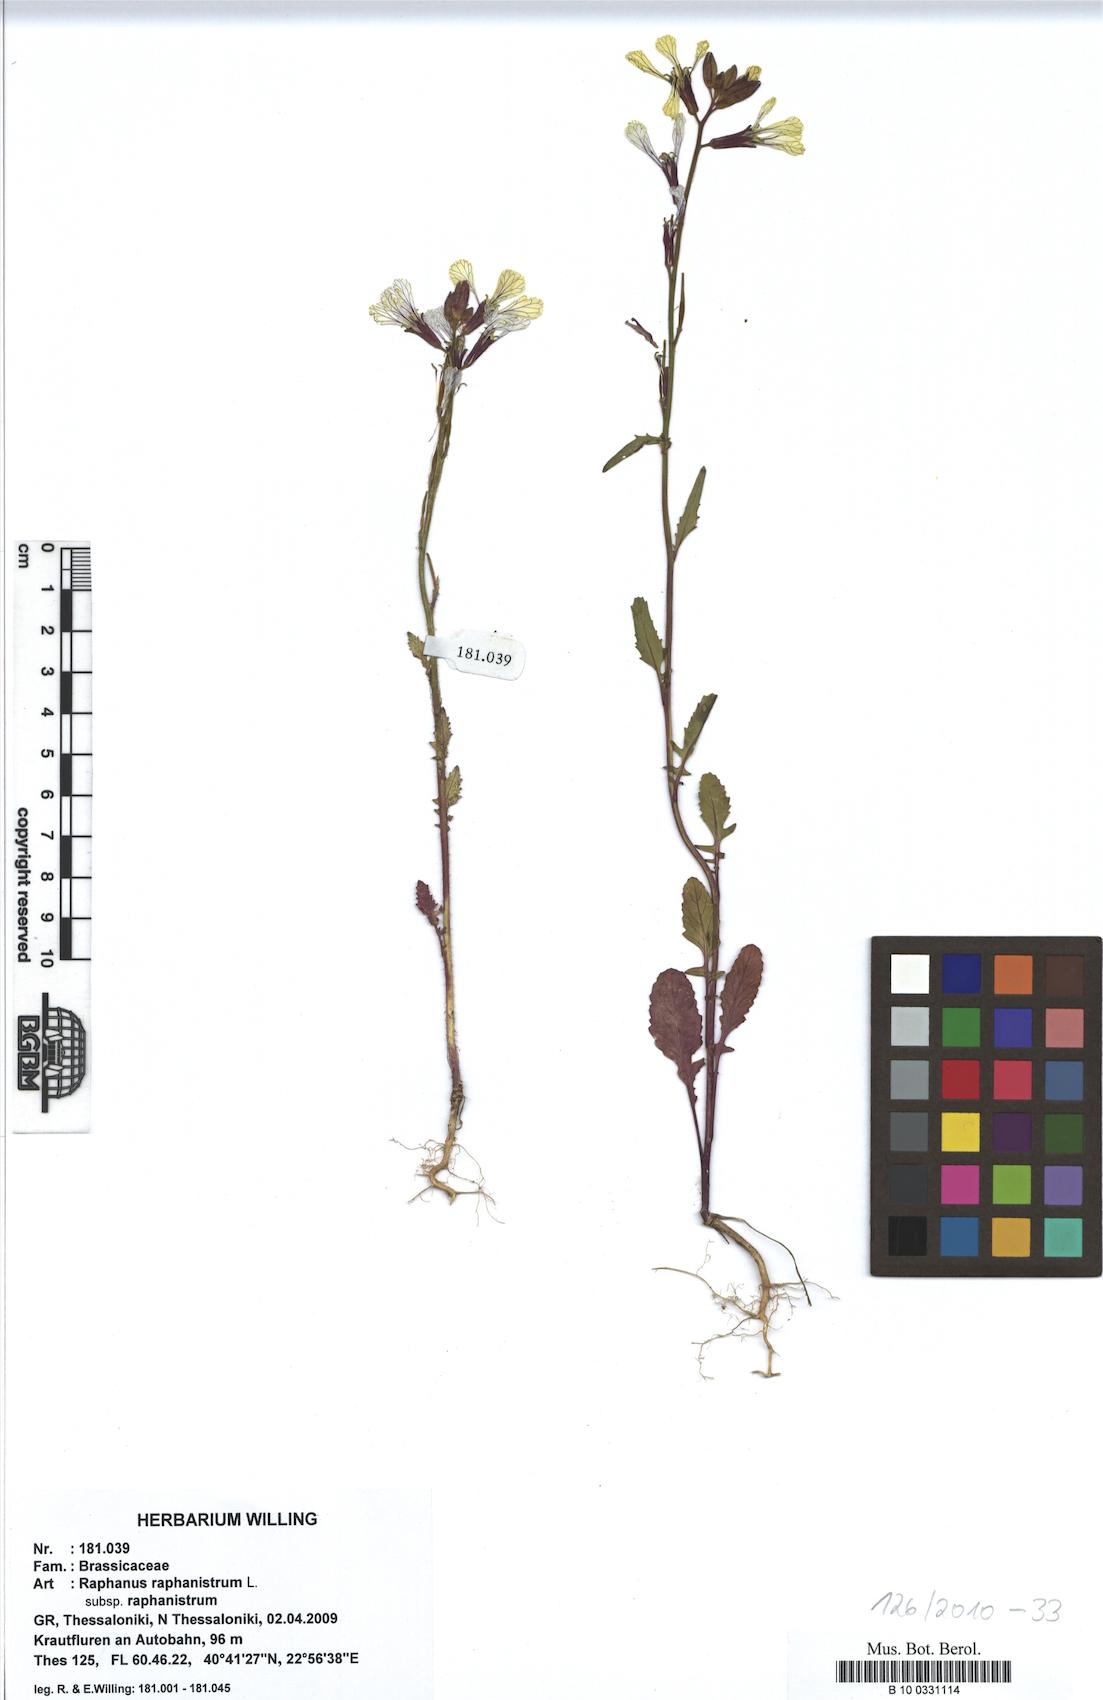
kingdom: Plantae
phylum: Tracheophyta
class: Magnoliopsida
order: Brassicales
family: Brassicaceae
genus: Raphanus
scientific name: Raphanus raphanistrum
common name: Wild radish
